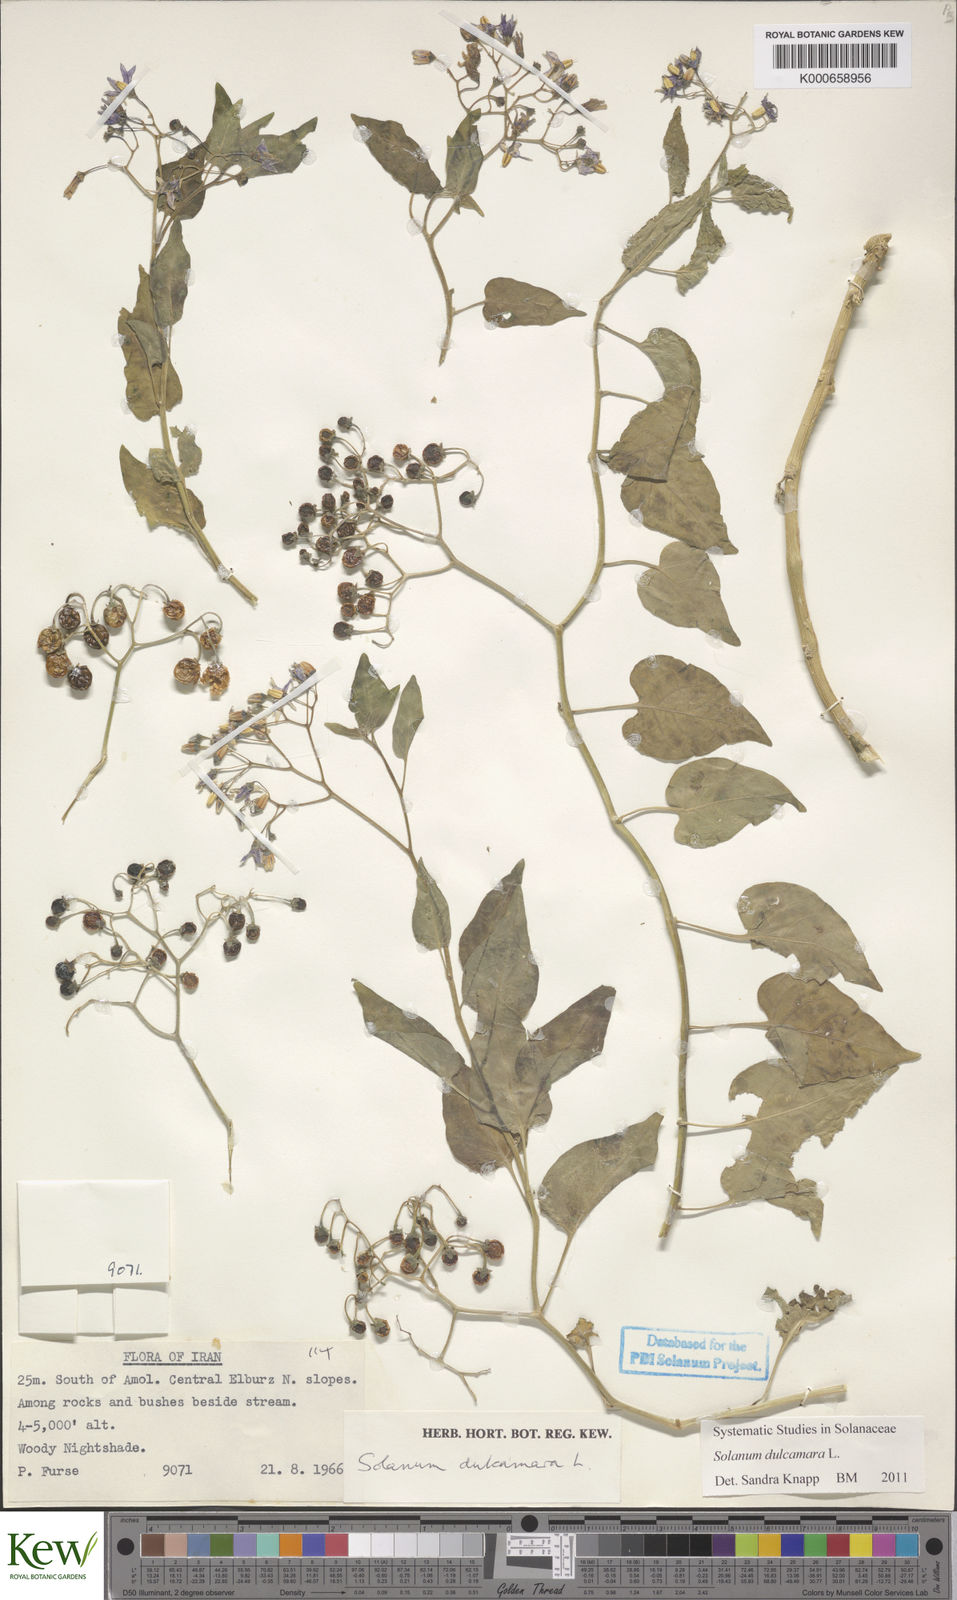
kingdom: Plantae
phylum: Tracheophyta
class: Magnoliopsida
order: Solanales
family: Solanaceae
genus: Solanum
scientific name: Solanum dulcamara
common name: Climbing nightshade
